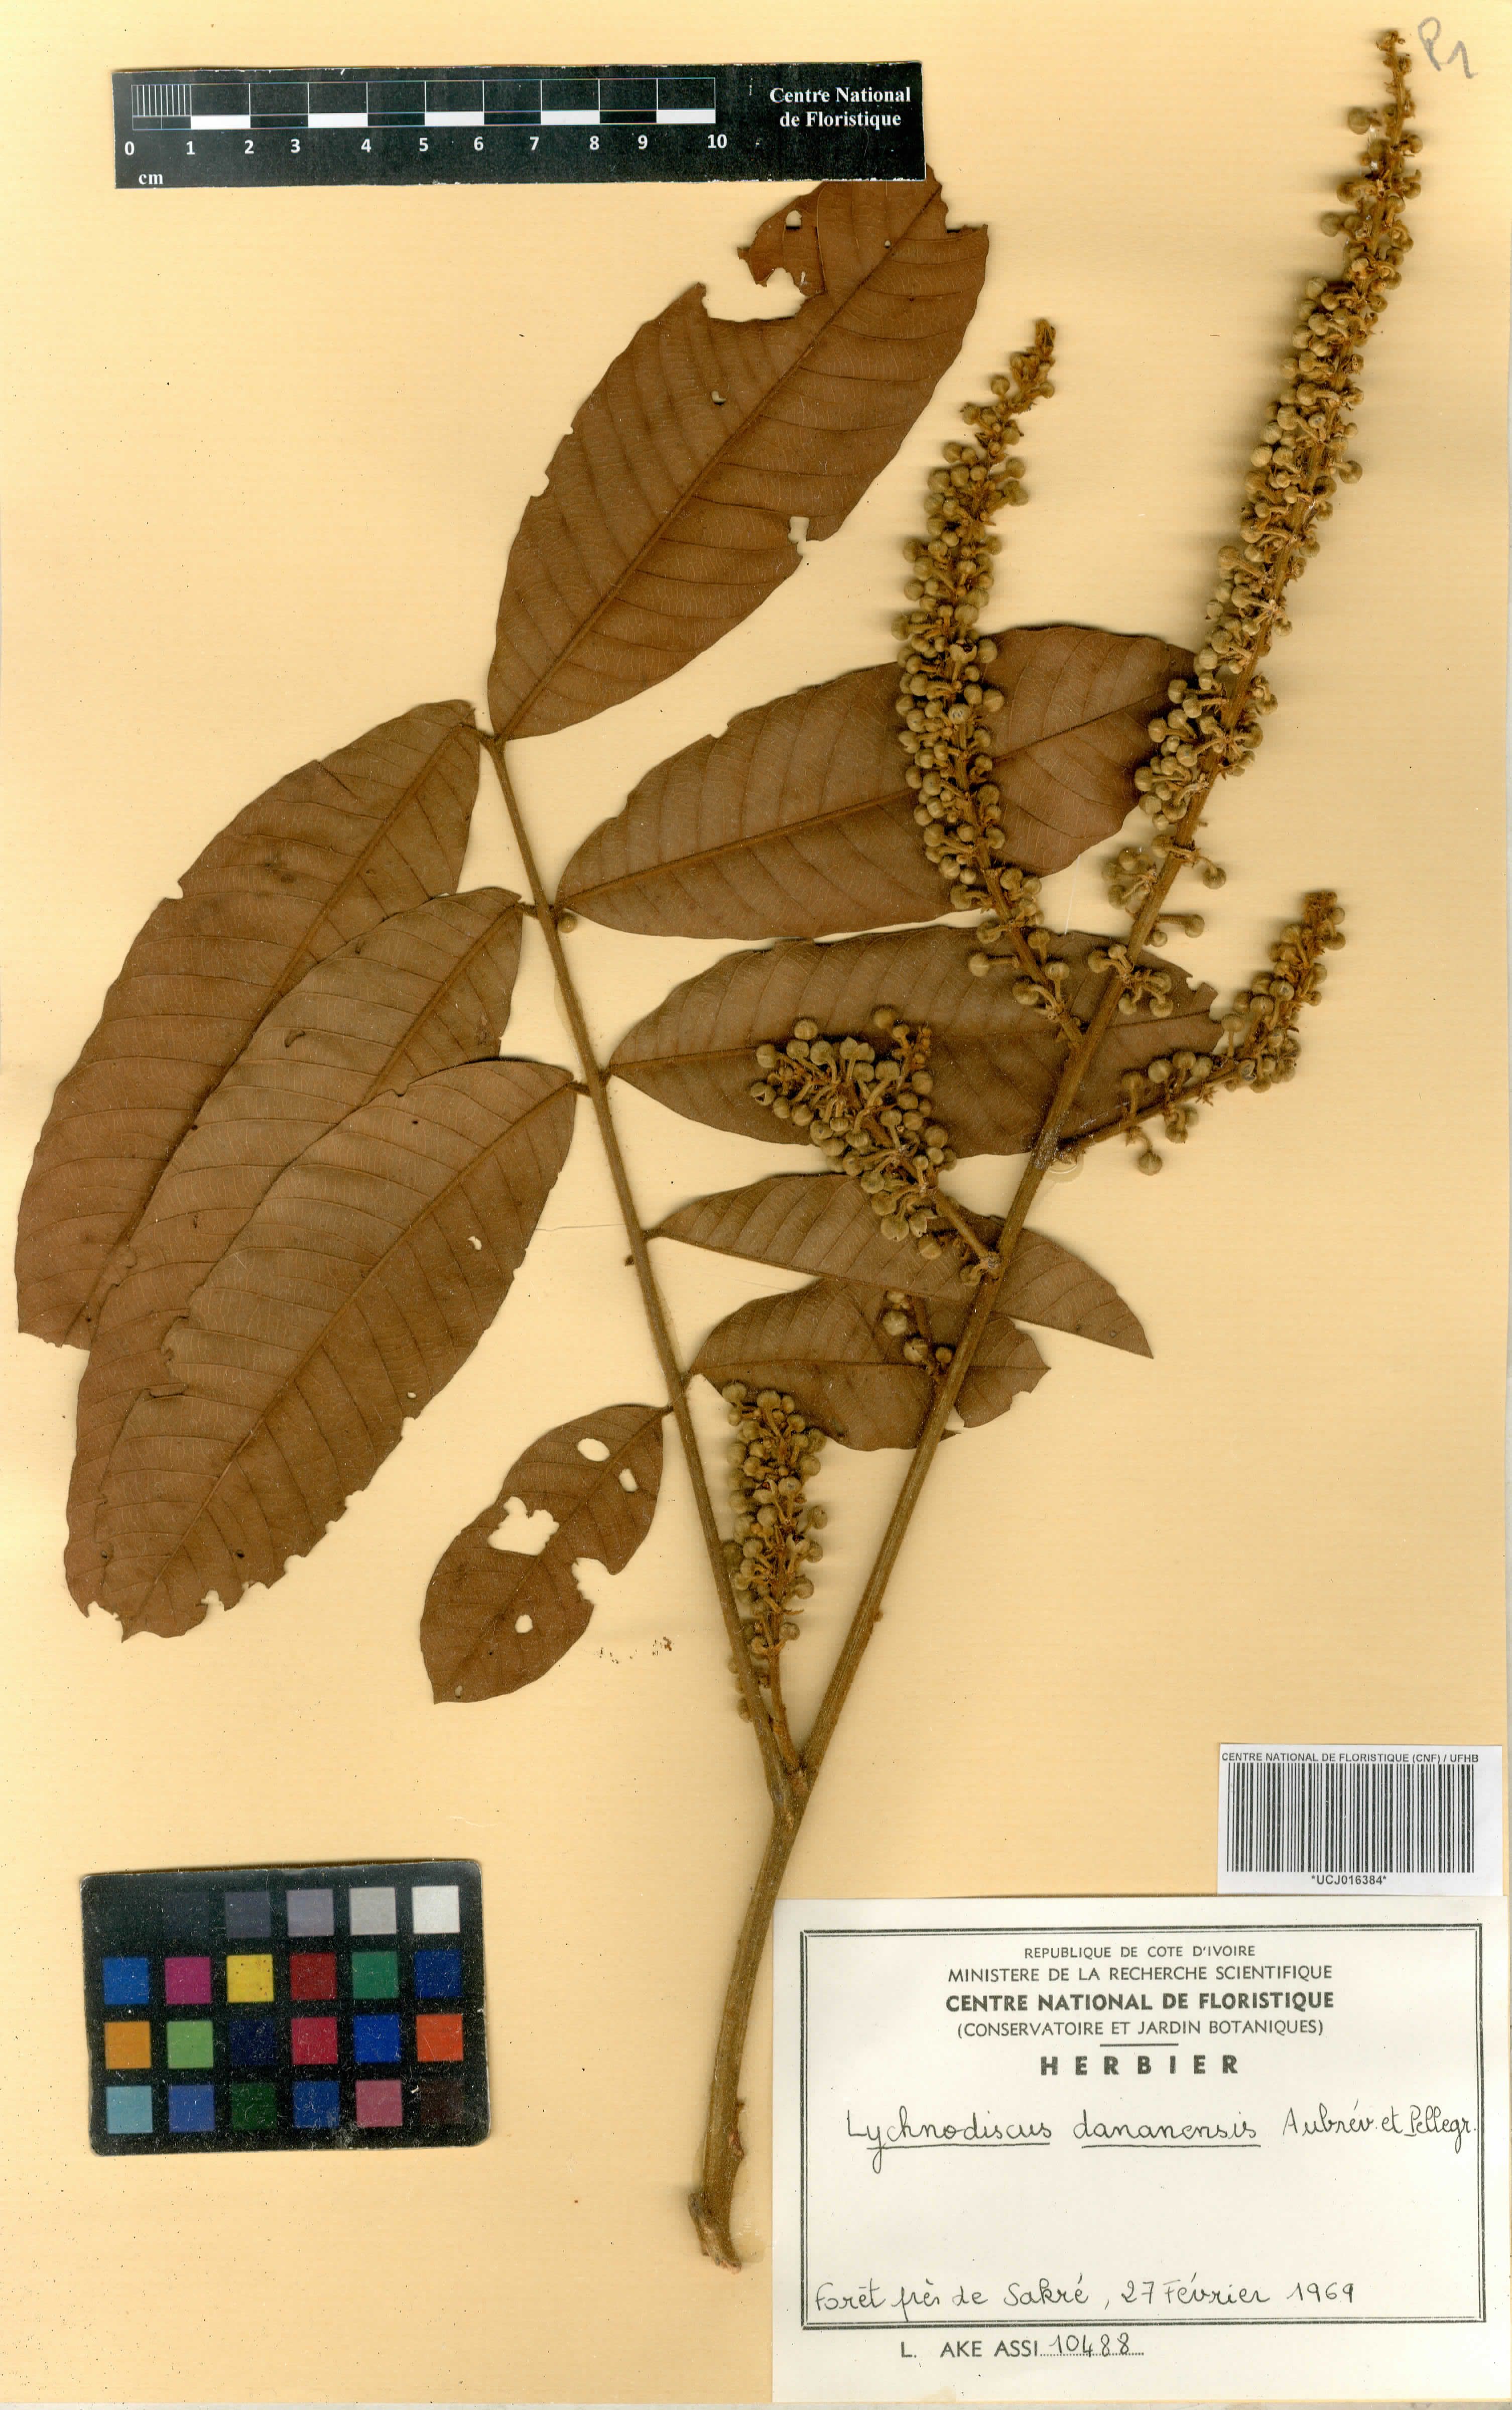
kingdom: Plantae
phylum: Tracheophyta
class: Magnoliopsida
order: Sapindales
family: Sapindaceae
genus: Lychnodiscus
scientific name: Lychnodiscus dananensis
